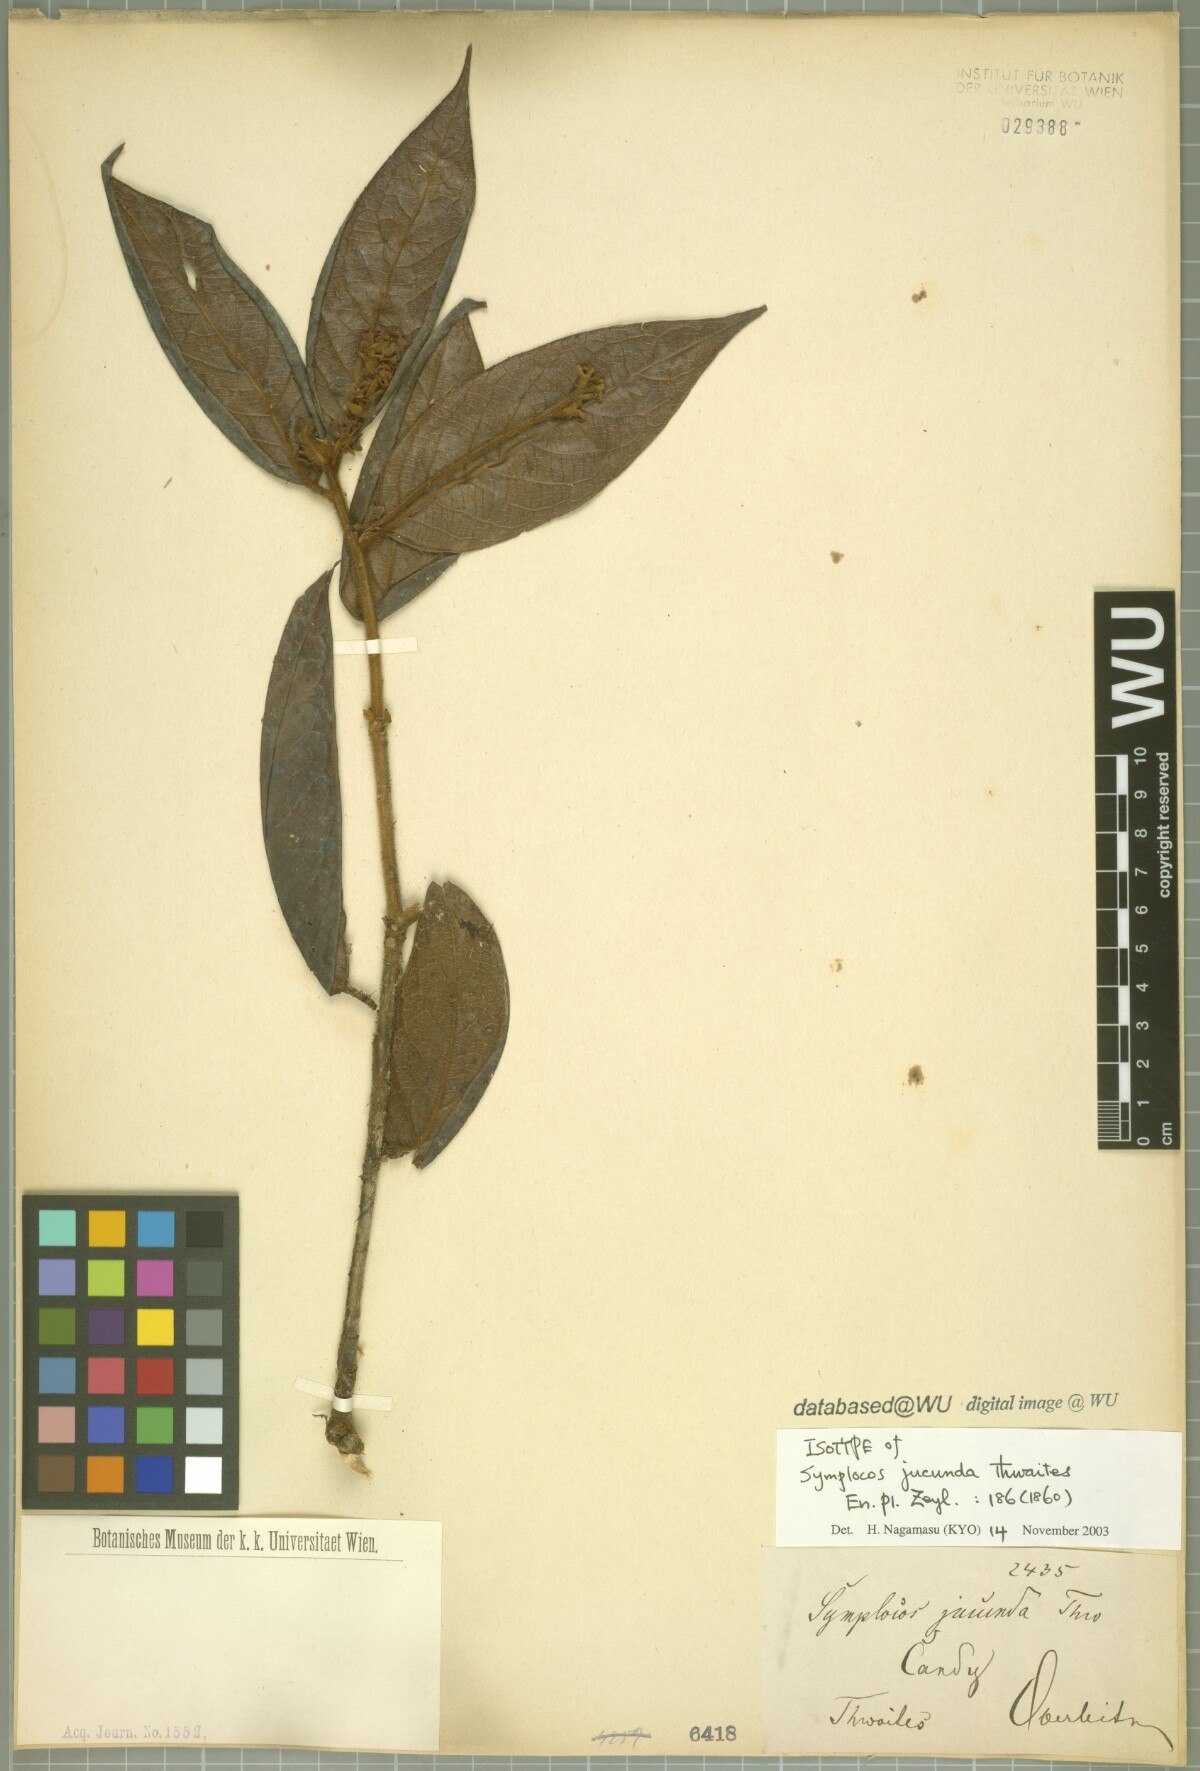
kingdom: Plantae
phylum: Tracheophyta
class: Magnoliopsida
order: Ericales
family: Symplocaceae
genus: Symplocos
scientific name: Symplocos macrophylla
